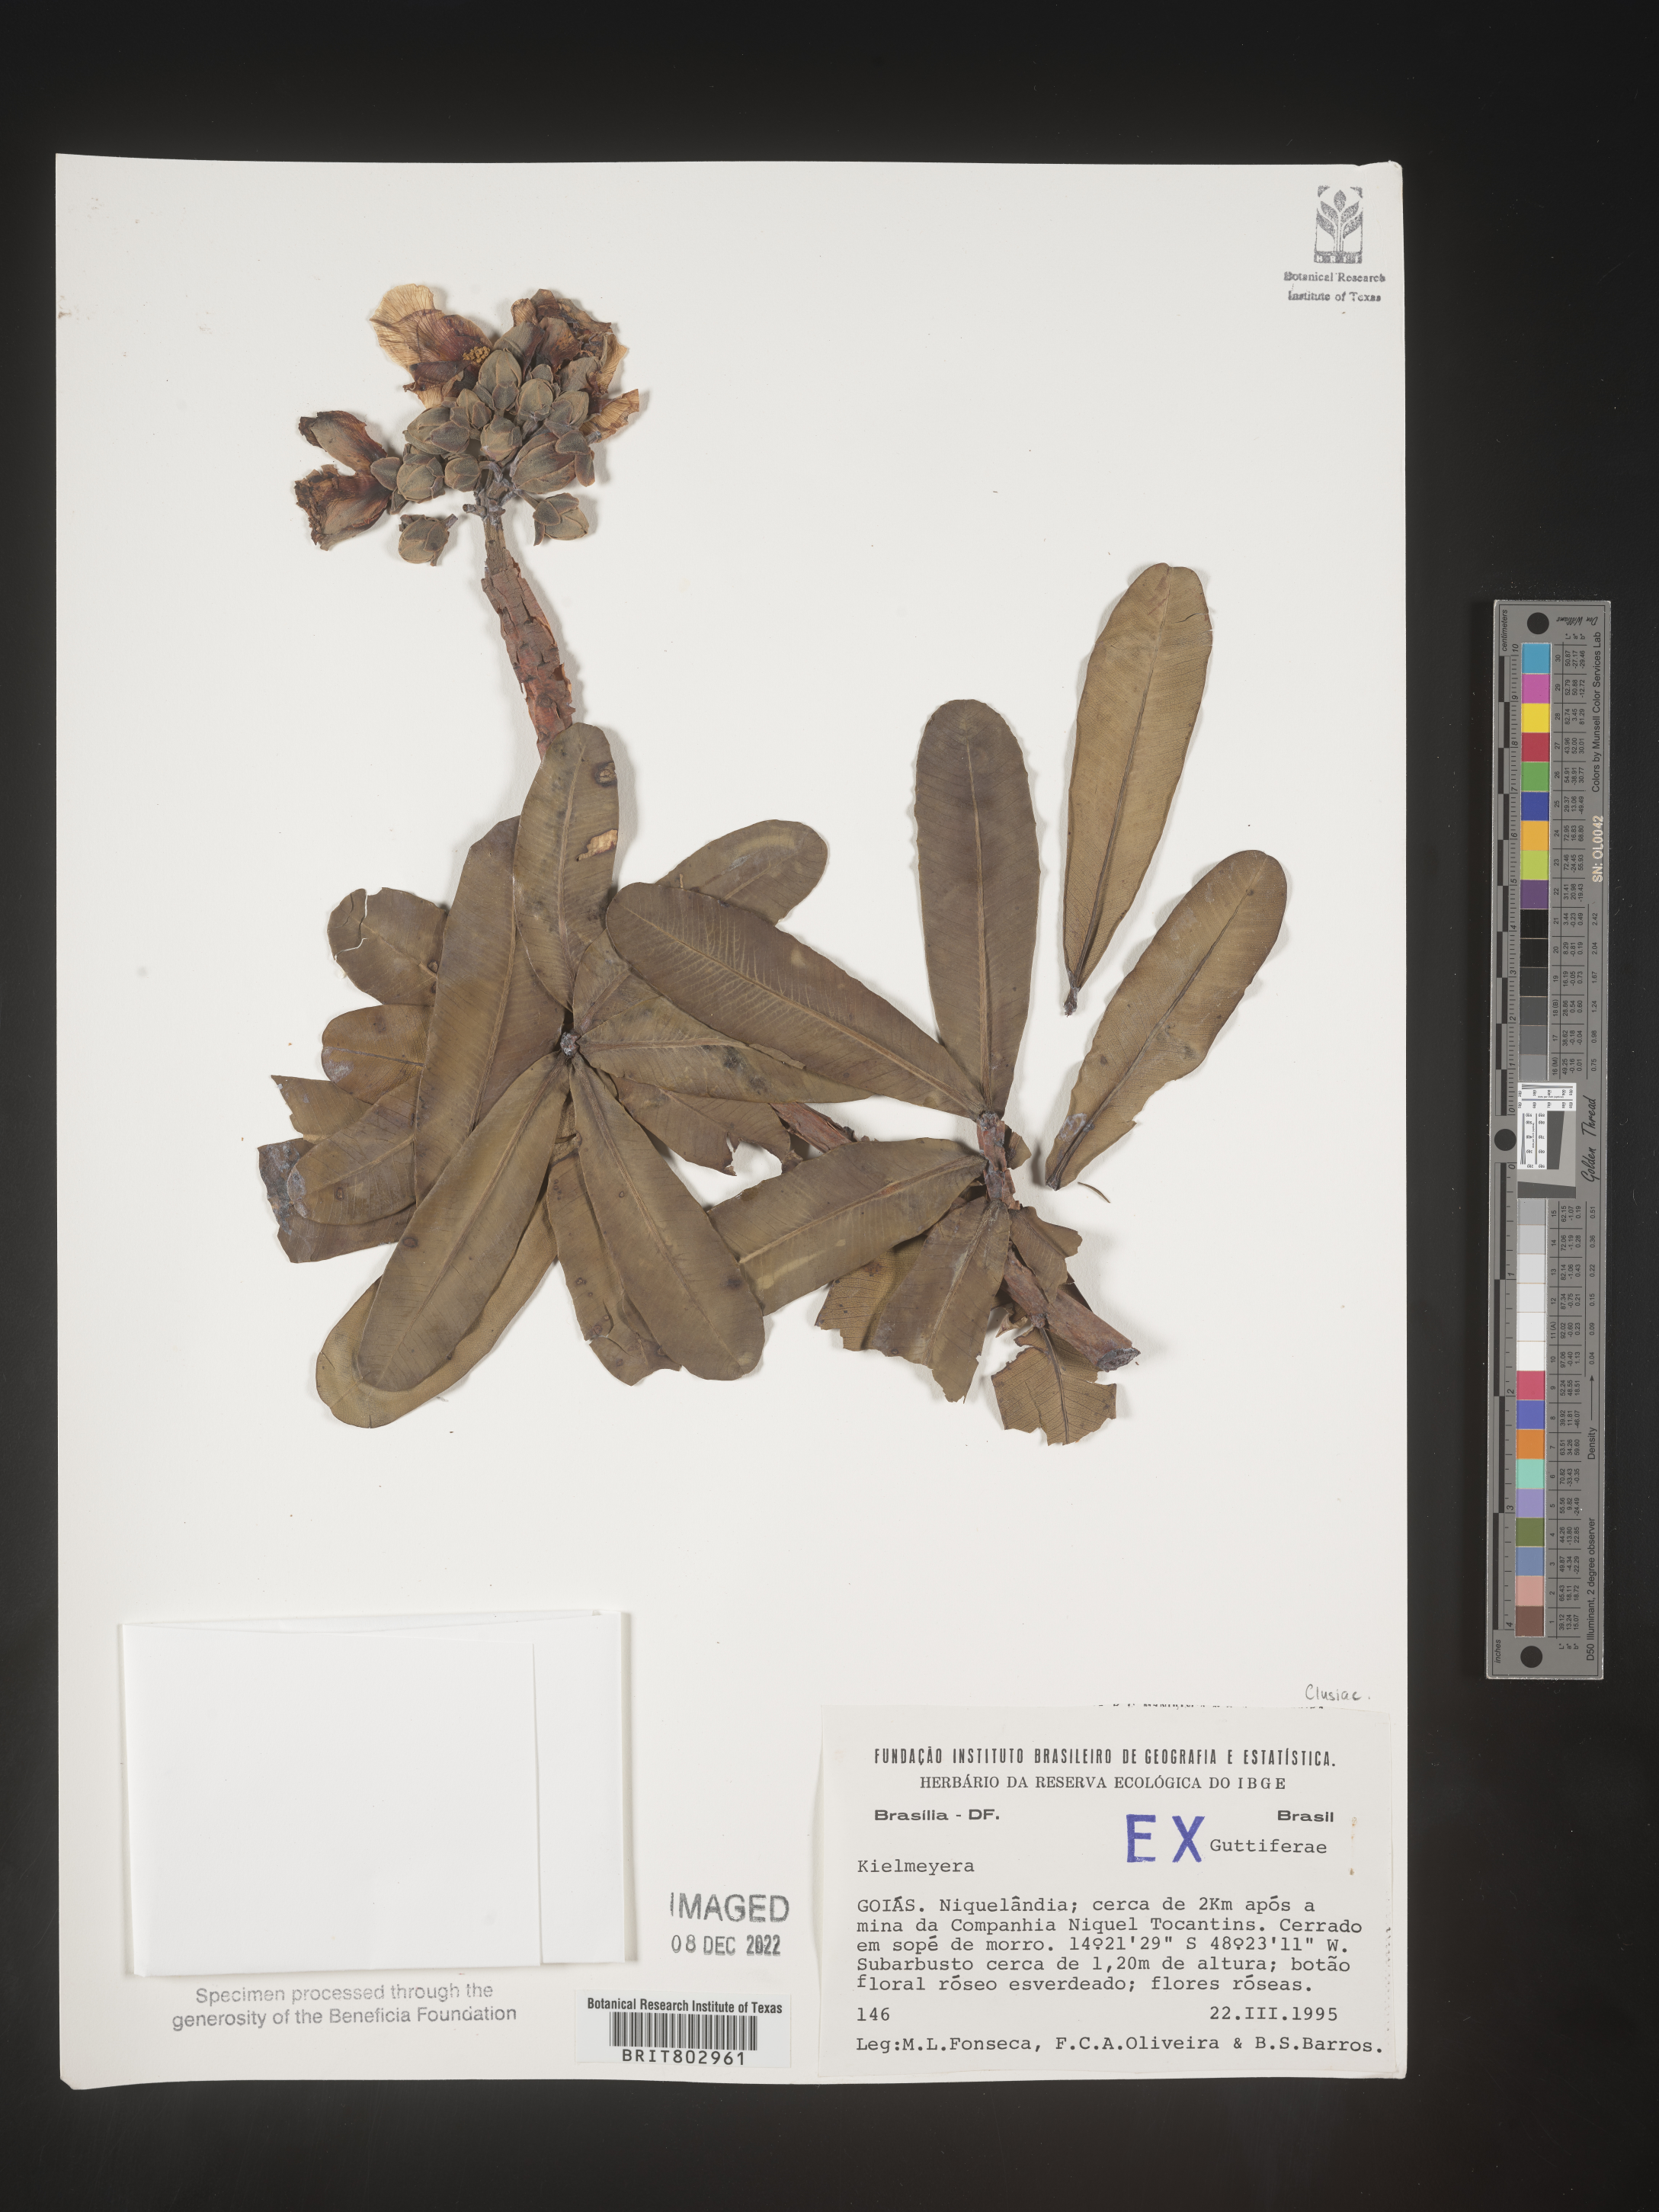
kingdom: Plantae
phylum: Tracheophyta
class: Magnoliopsida
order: Malpighiales
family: Calophyllaceae
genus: Kielmeyera
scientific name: Kielmeyera
